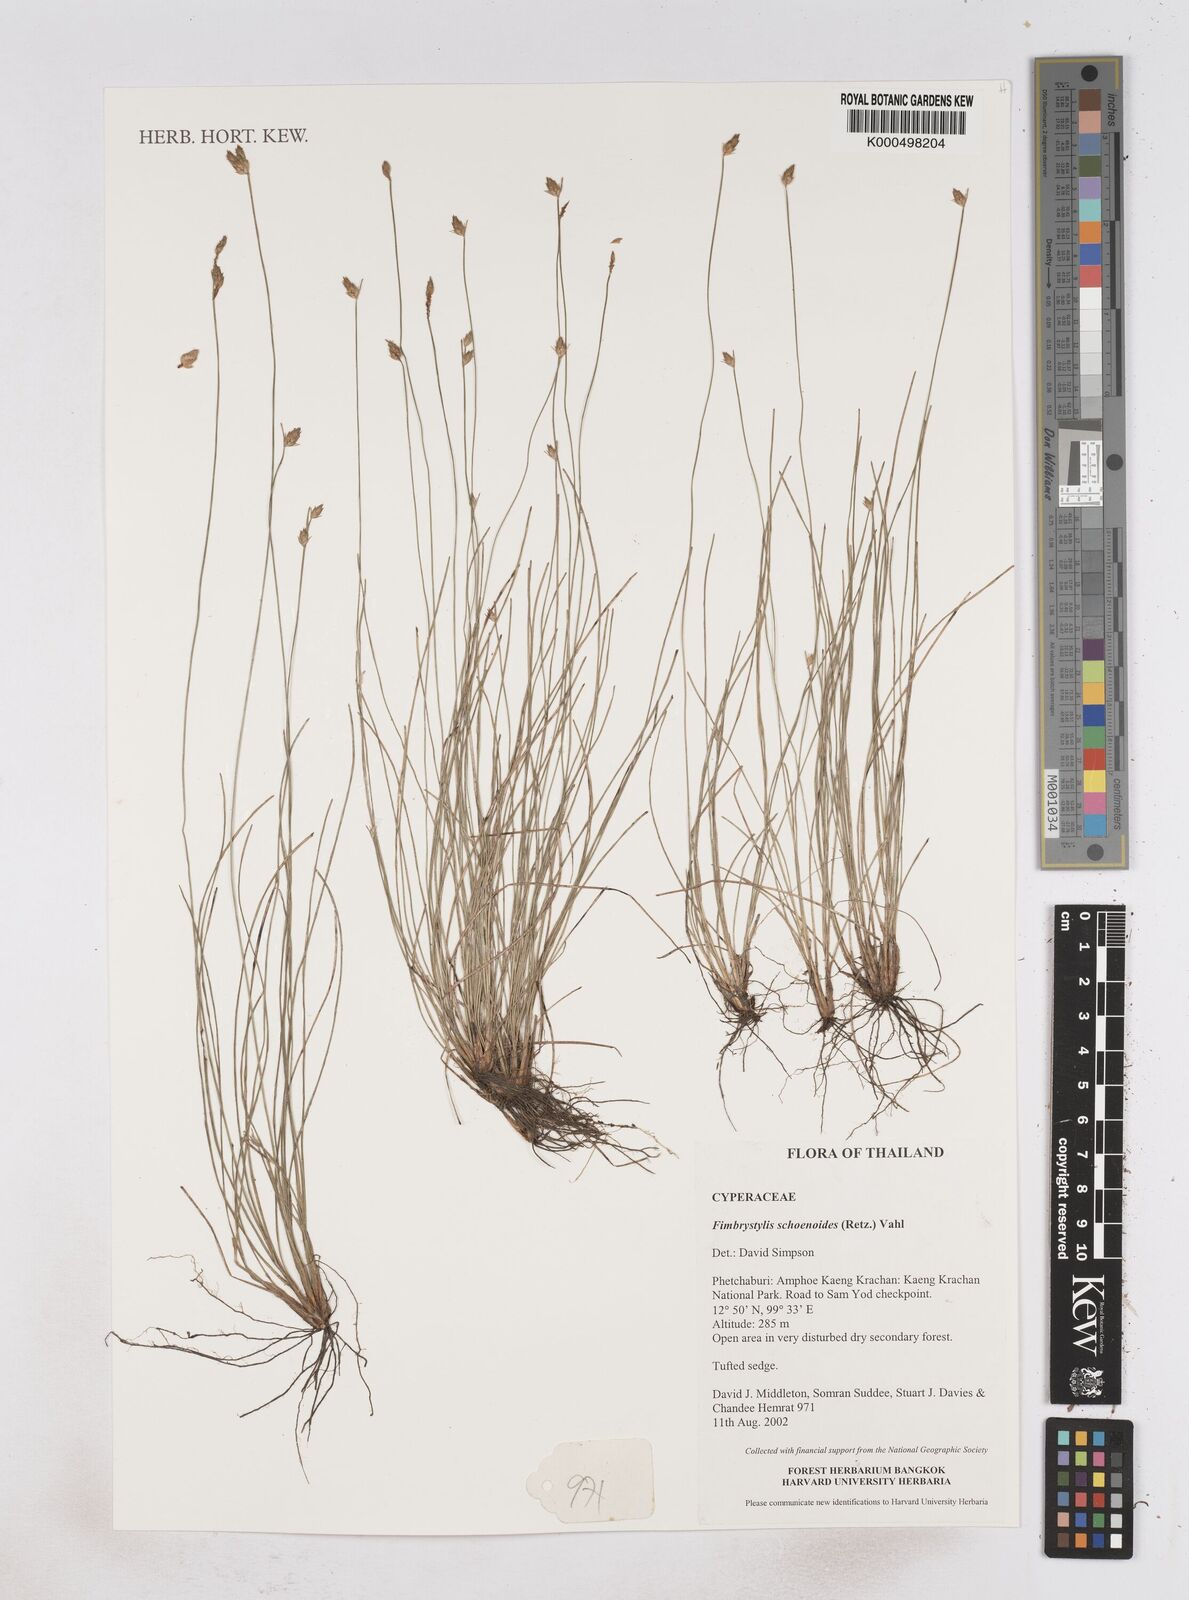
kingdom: Plantae
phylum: Tracheophyta
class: Liliopsida
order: Poales
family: Cyperaceae
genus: Fimbristylis
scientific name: Fimbristylis schoenoides
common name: Ditch fimbry
